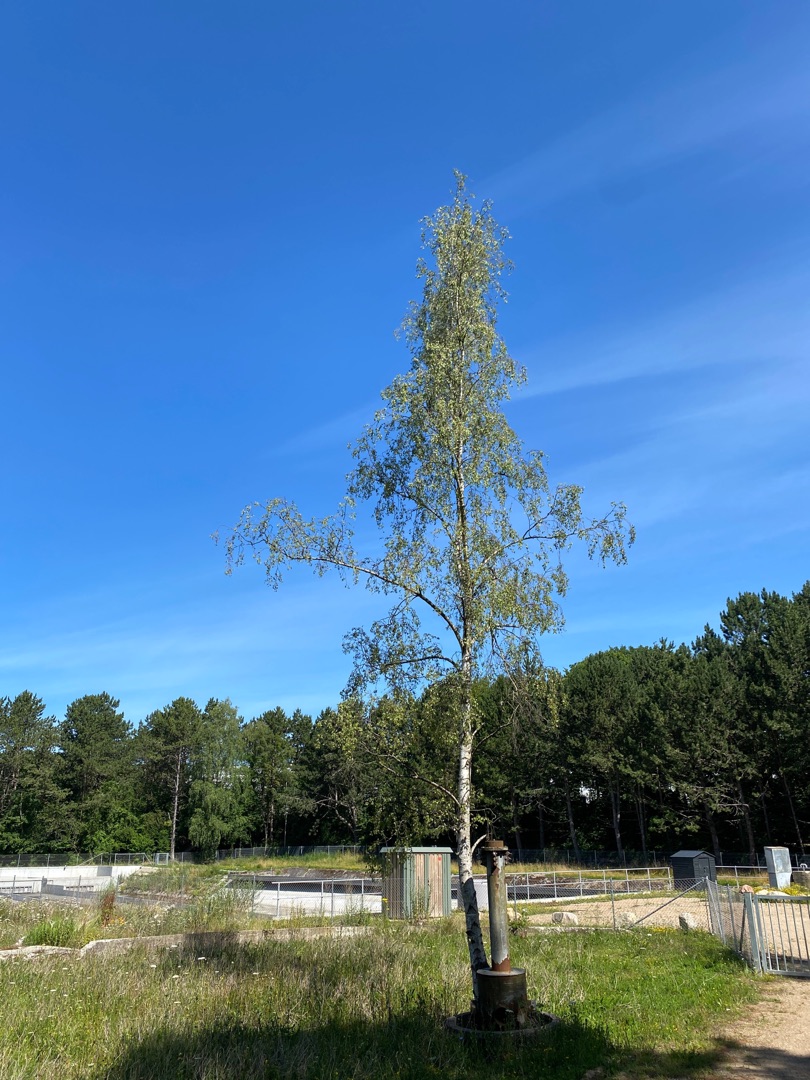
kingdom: Plantae
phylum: Tracheophyta
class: Magnoliopsida
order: Fagales
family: Betulaceae
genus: Betula
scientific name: Betula pendula
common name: Vorte-birk
